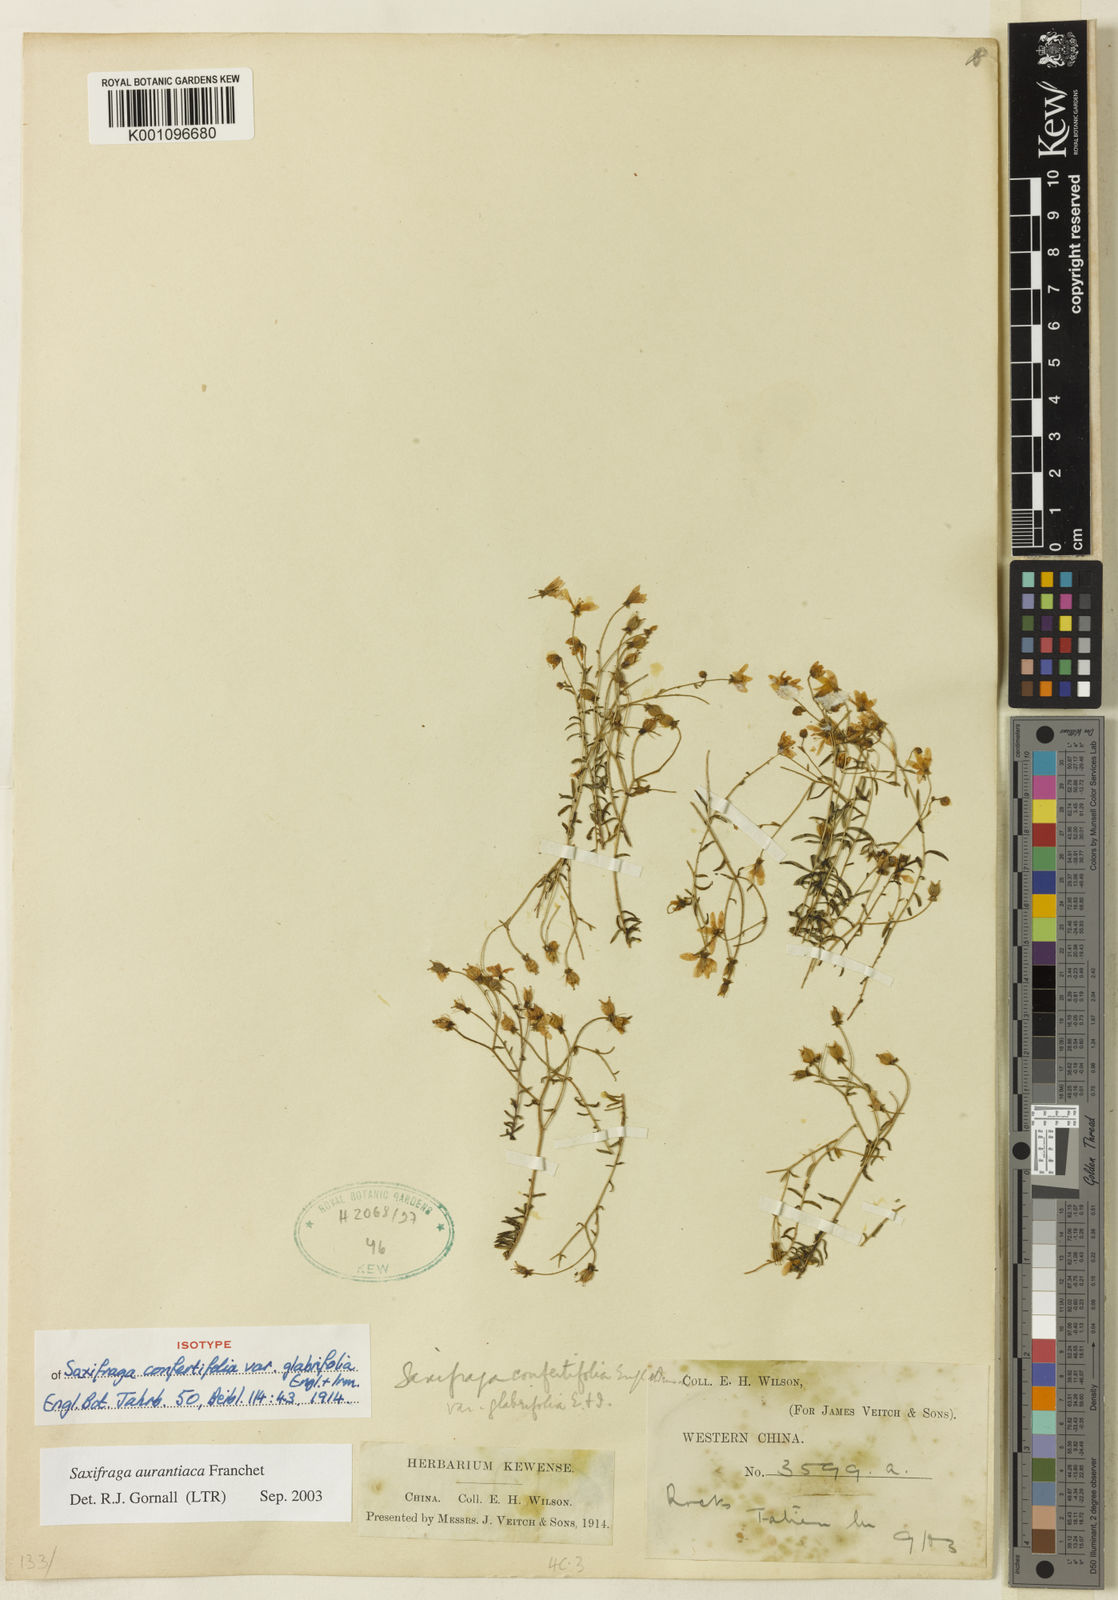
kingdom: Plantae
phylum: Tracheophyta
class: Magnoliopsida
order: Saxifragales
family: Saxifragaceae
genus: Saxifraga
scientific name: Saxifraga aurantiaca
